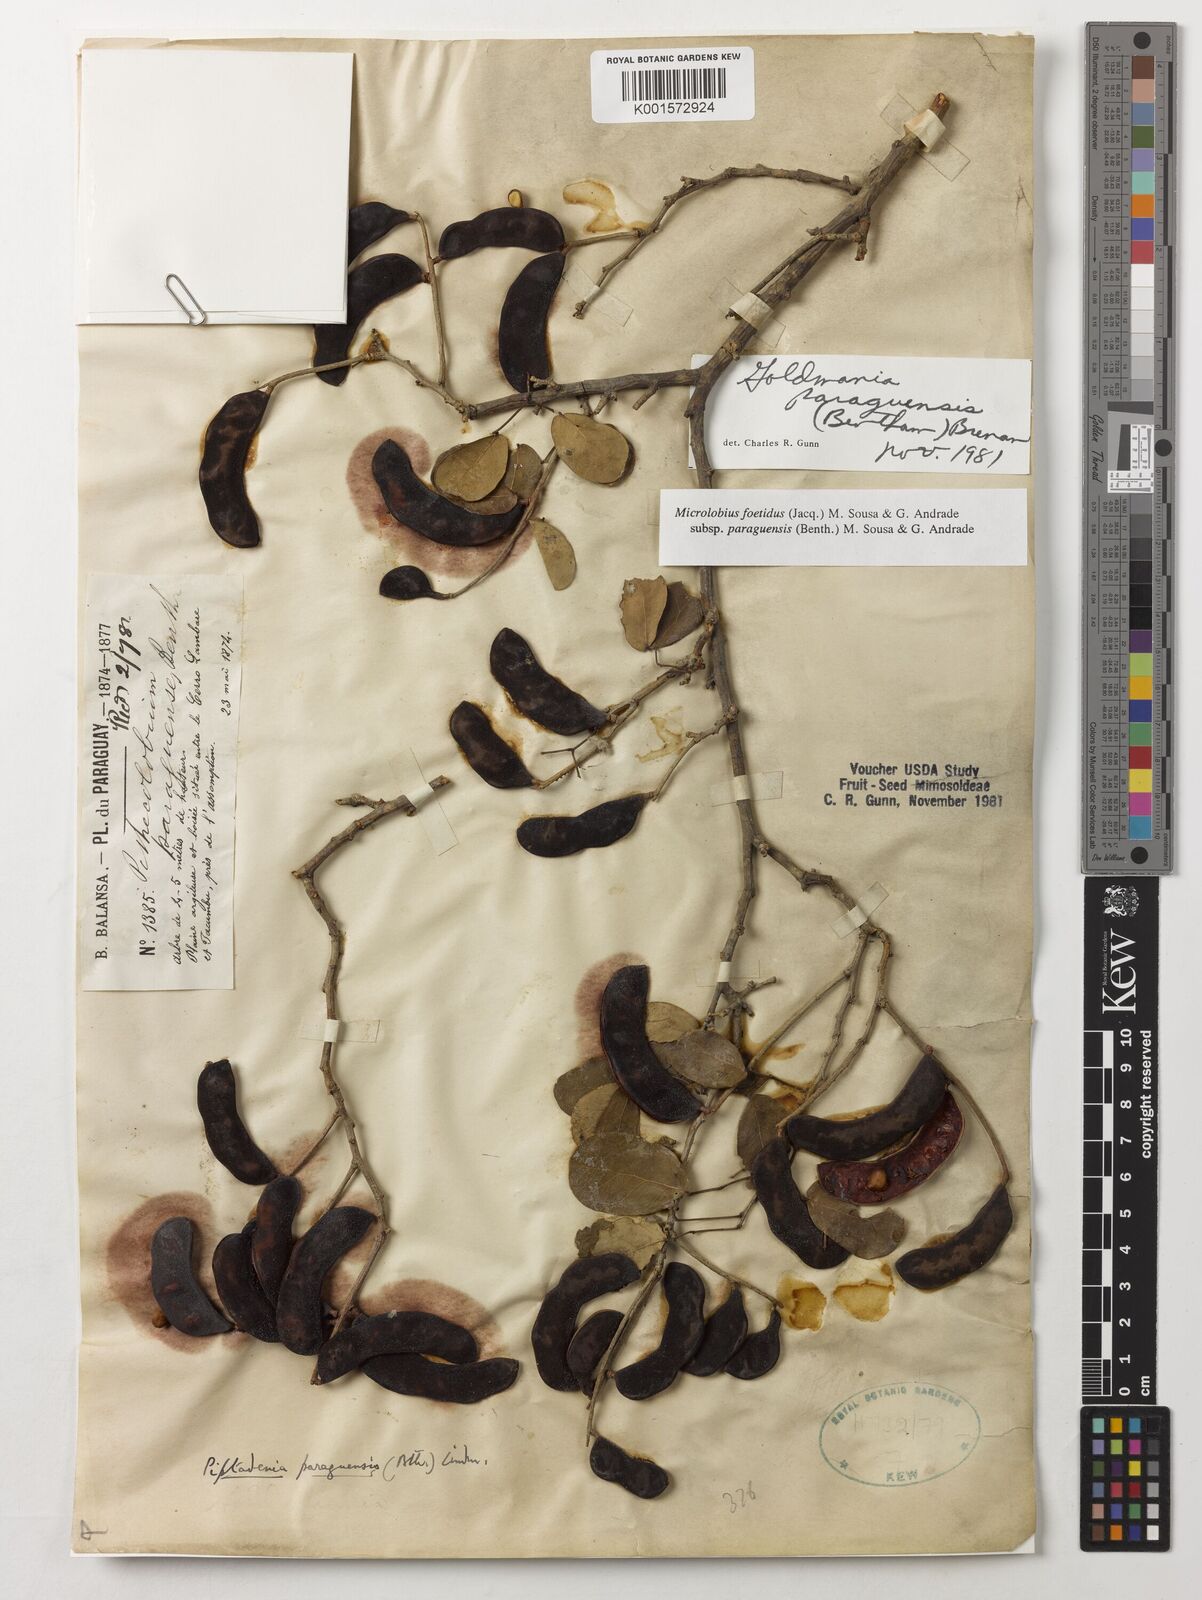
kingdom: Plantae
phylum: Tracheophyta
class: Magnoliopsida
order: Fabales
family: Fabaceae
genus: Microlobius
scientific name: Microlobius foetidus
